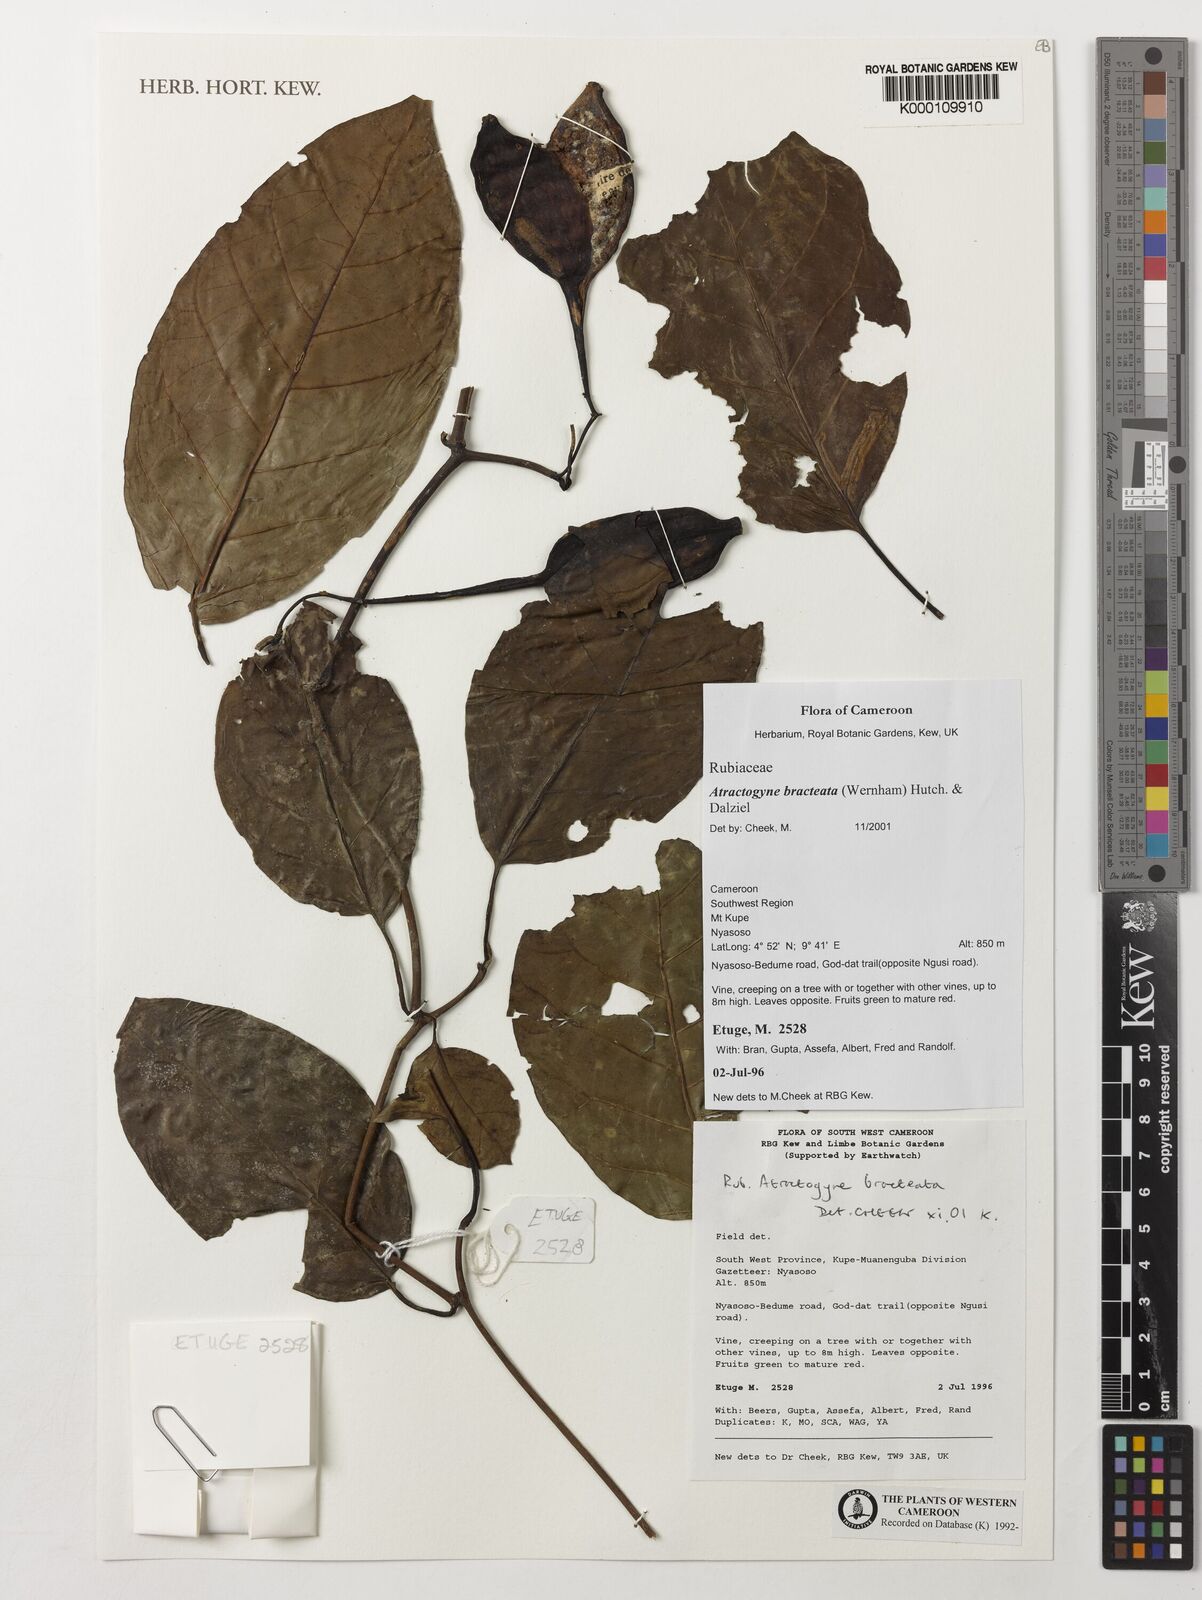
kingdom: Plantae
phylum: Tracheophyta
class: Magnoliopsida
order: Gentianales
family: Rubiaceae
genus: Atractogyne
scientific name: Atractogyne bracteata
